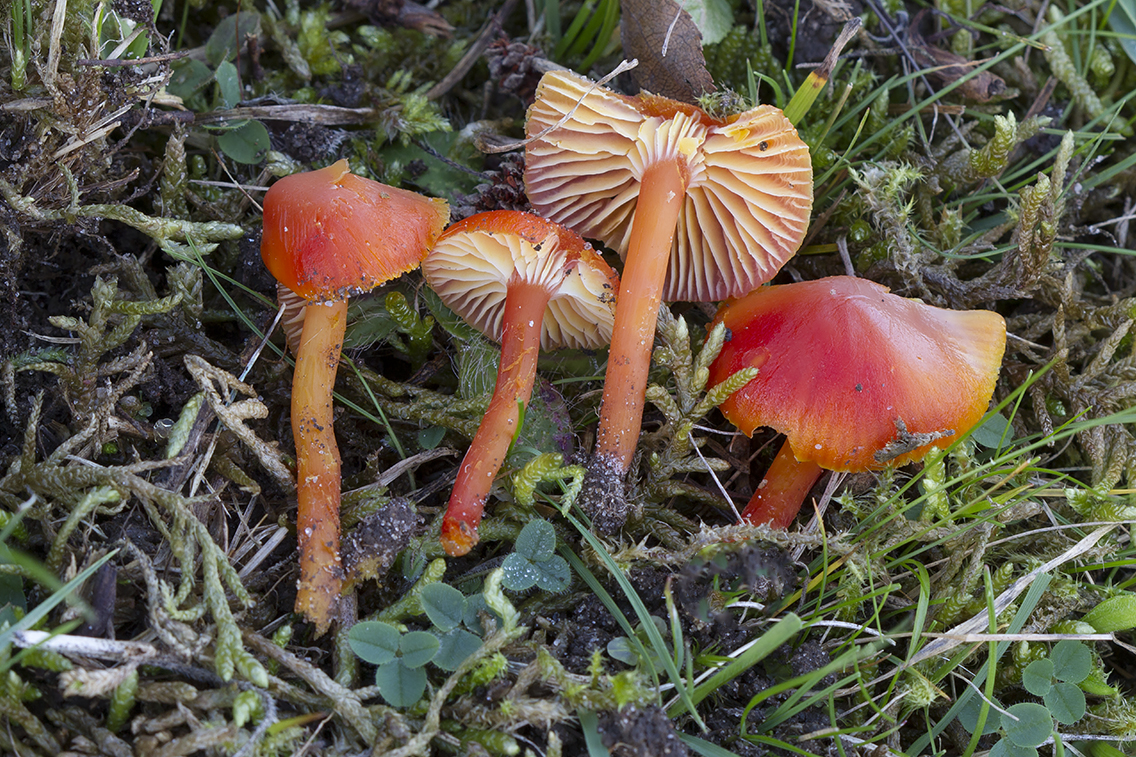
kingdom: Fungi
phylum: Basidiomycota
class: Agaricomycetes
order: Agaricales
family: Hygrophoraceae
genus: Hygrocybe
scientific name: Hygrocybe
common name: vokshat
